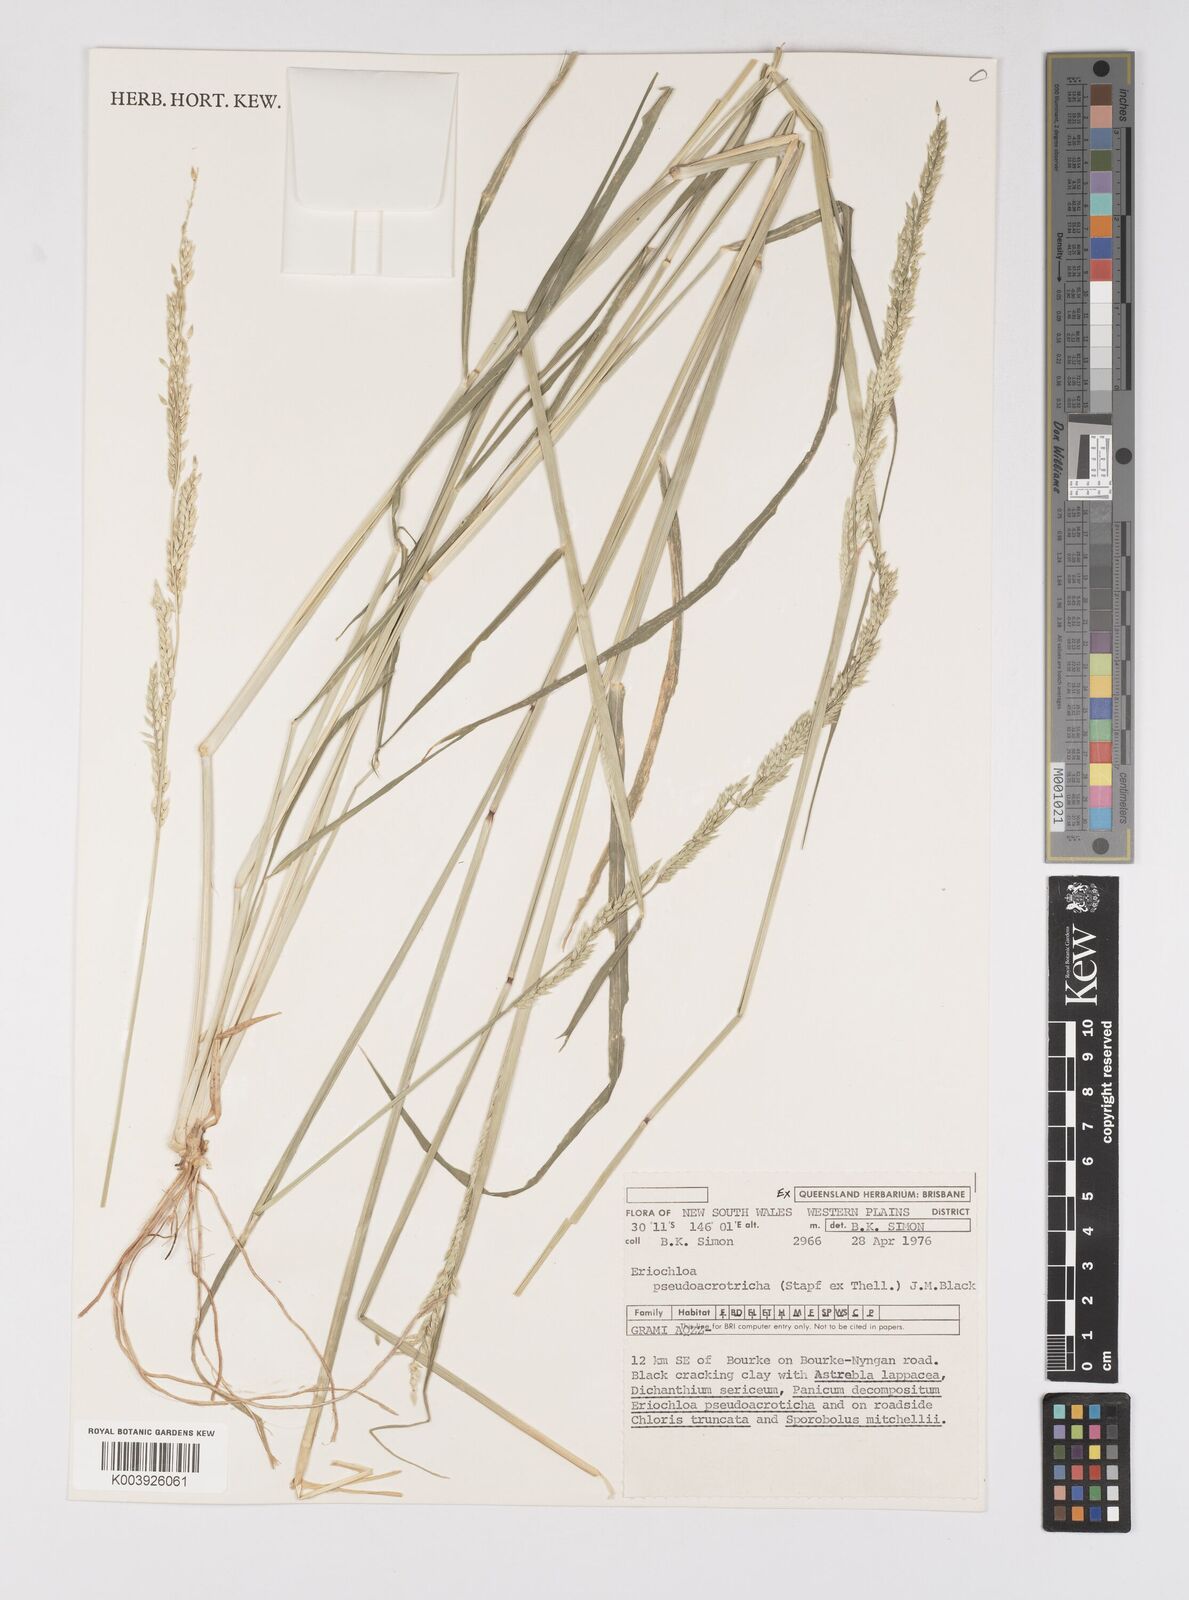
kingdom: Plantae
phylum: Tracheophyta
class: Liliopsida
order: Poales
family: Poaceae
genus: Eriochloa
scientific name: Eriochloa pseudoacrotricha
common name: Perennial cup-grass
